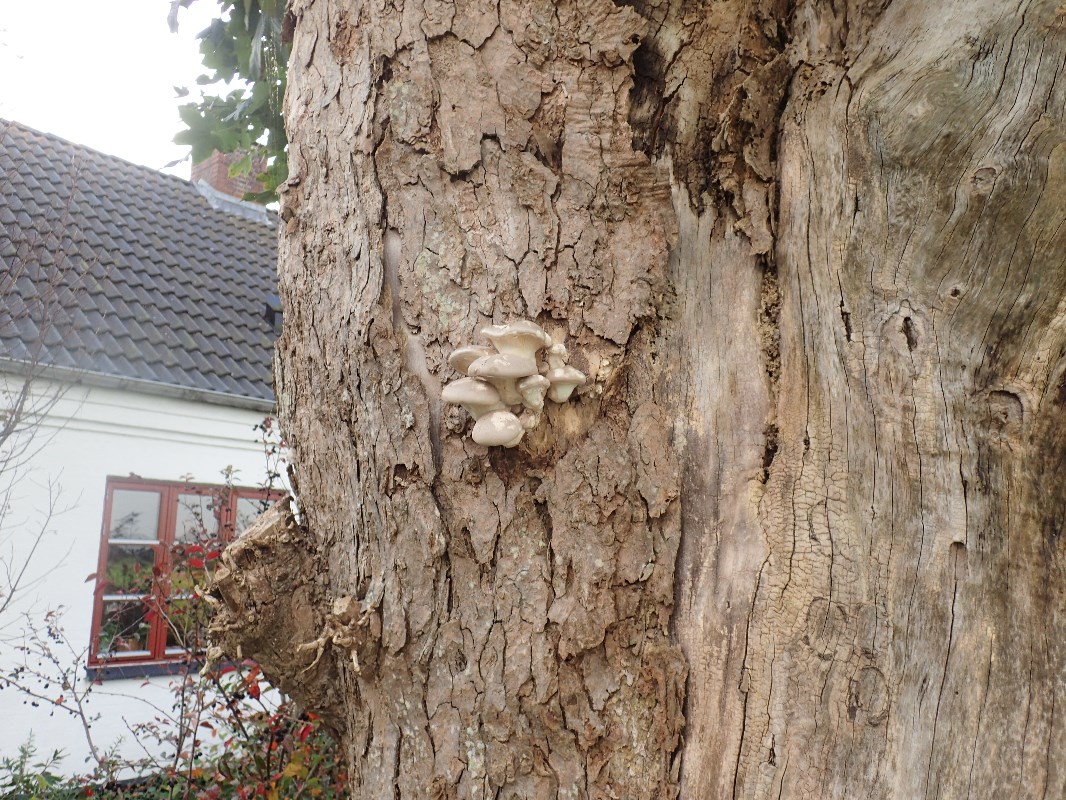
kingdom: Fungi
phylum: Basidiomycota
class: Agaricomycetes
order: Agaricales
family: Pleurotaceae
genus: Pleurotus
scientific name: Pleurotus dryinus
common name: korkagtig østershat
